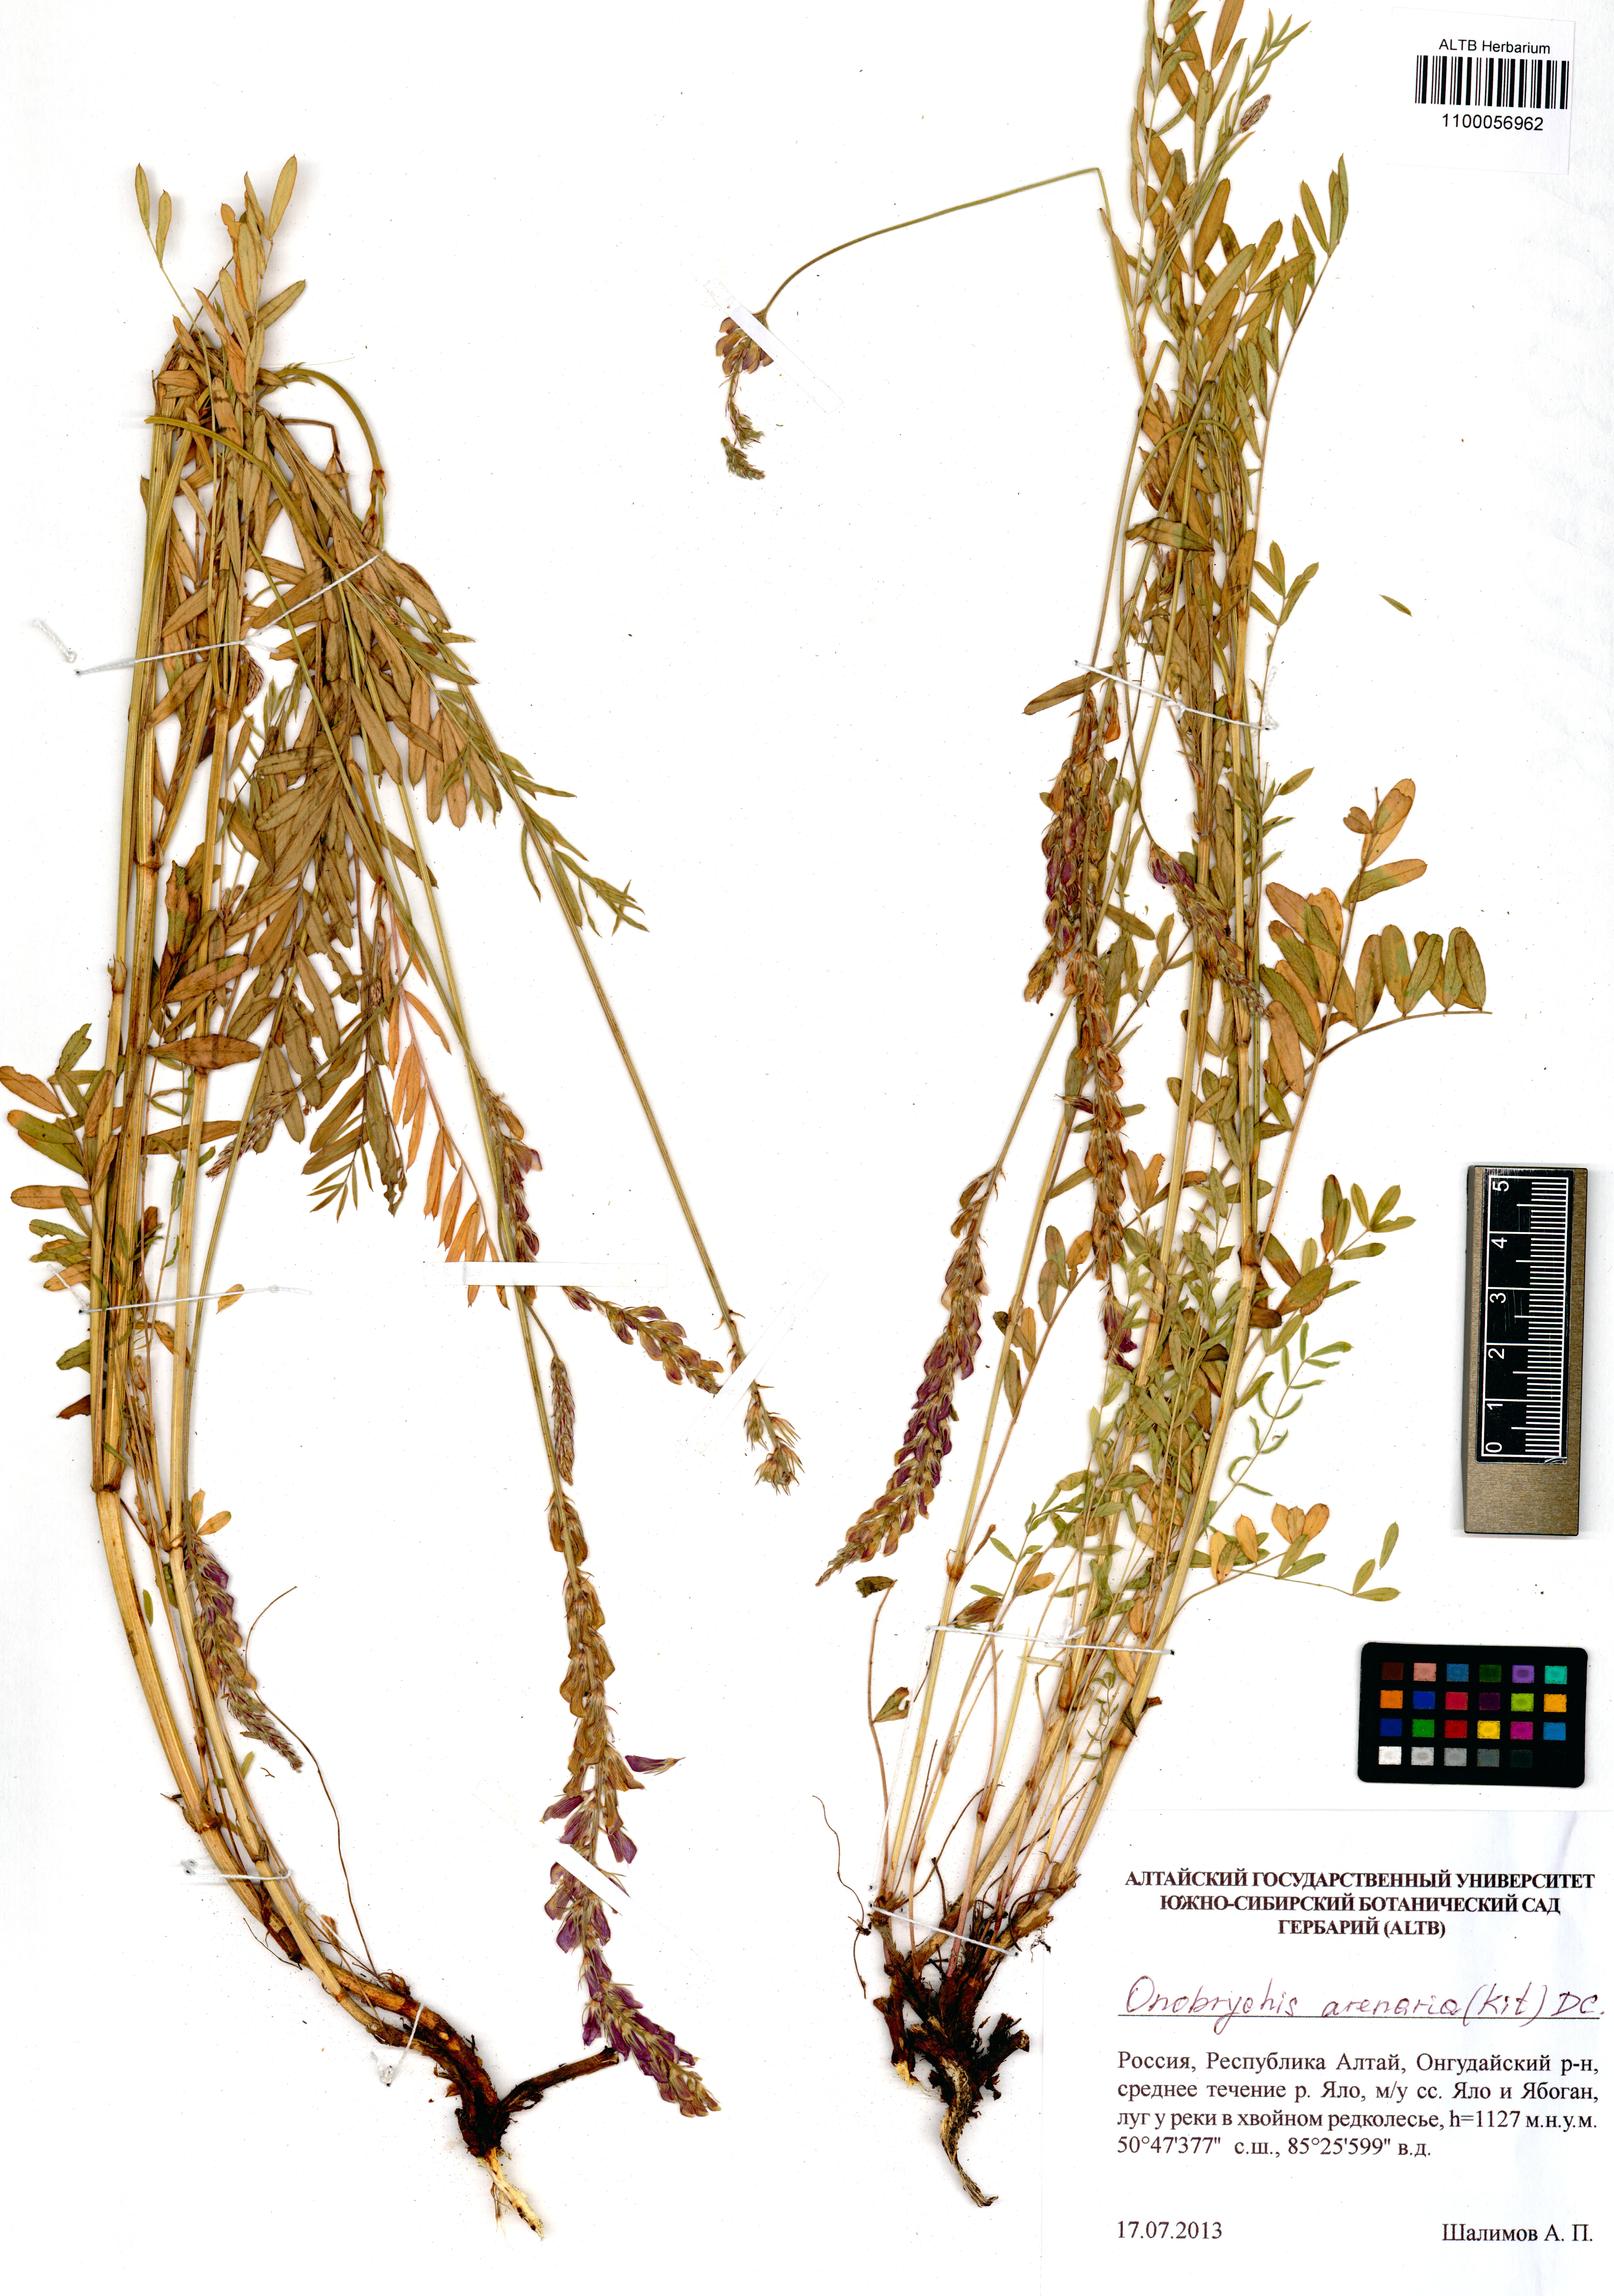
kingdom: Plantae
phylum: Tracheophyta
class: Magnoliopsida
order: Fabales
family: Fabaceae
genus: Onobrychis
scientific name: Onobrychis arenaria
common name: Sand esparcet
